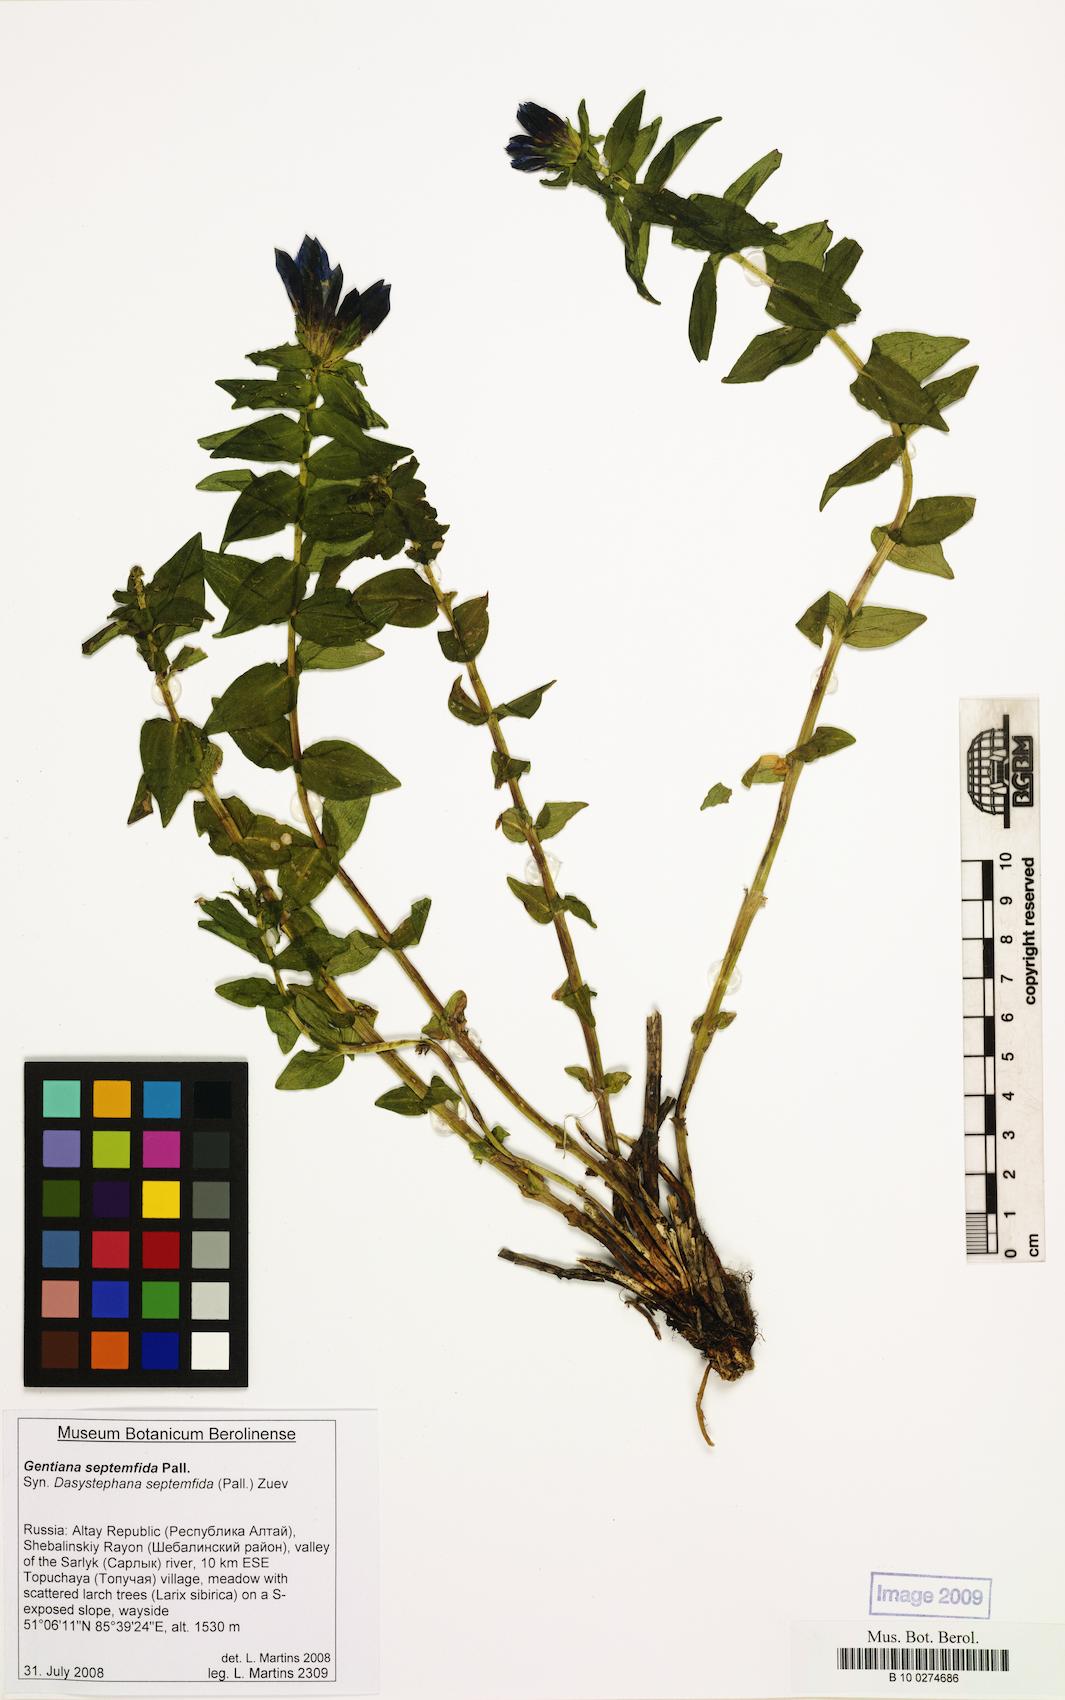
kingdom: Plantae
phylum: Tracheophyta
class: Magnoliopsida
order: Gentianales
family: Gentianaceae
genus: Gentiana
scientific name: Gentiana septemfida
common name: Crested gentian
